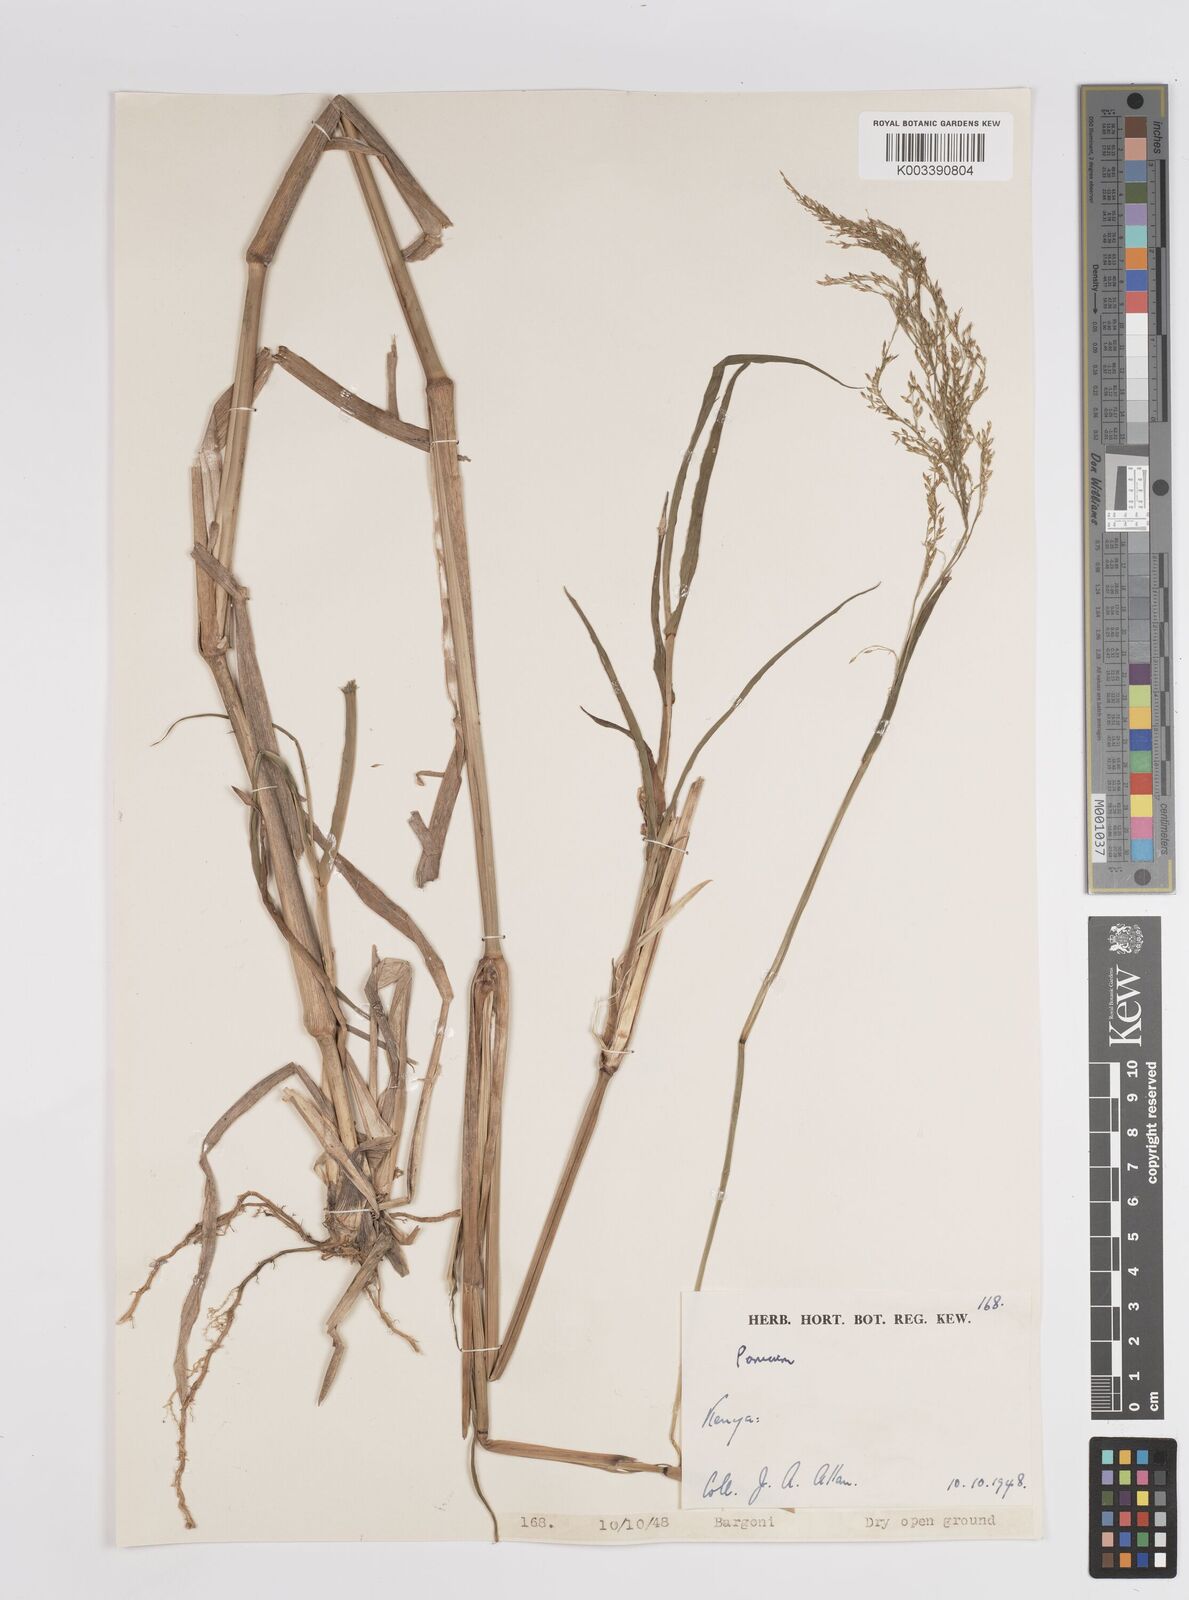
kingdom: Plantae
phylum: Tracheophyta
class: Liliopsida
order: Poales
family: Poaceae
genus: Panicum
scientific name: Panicum coloratum
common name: Kleingrass
